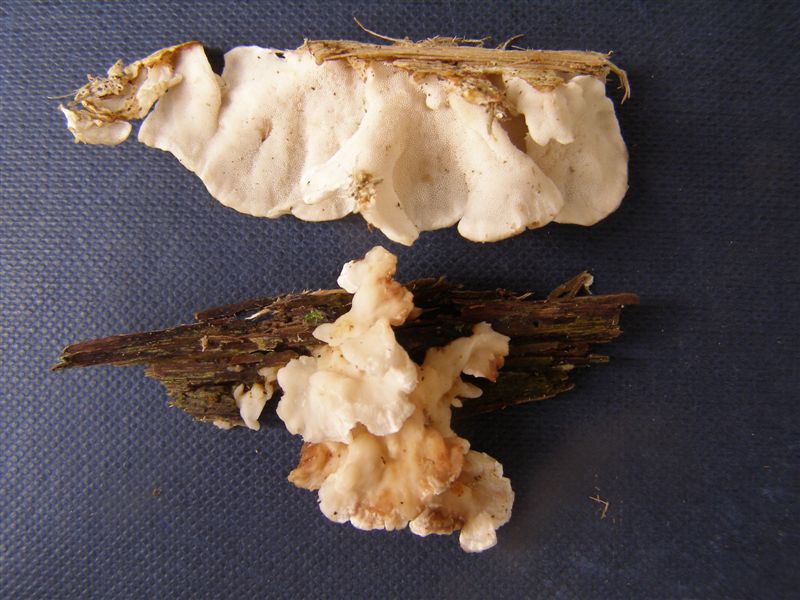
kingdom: Fungi
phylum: Basidiomycota
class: Agaricomycetes
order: Polyporales
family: Steccherinaceae
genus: Antrodiella
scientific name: Antrodiella faginea
